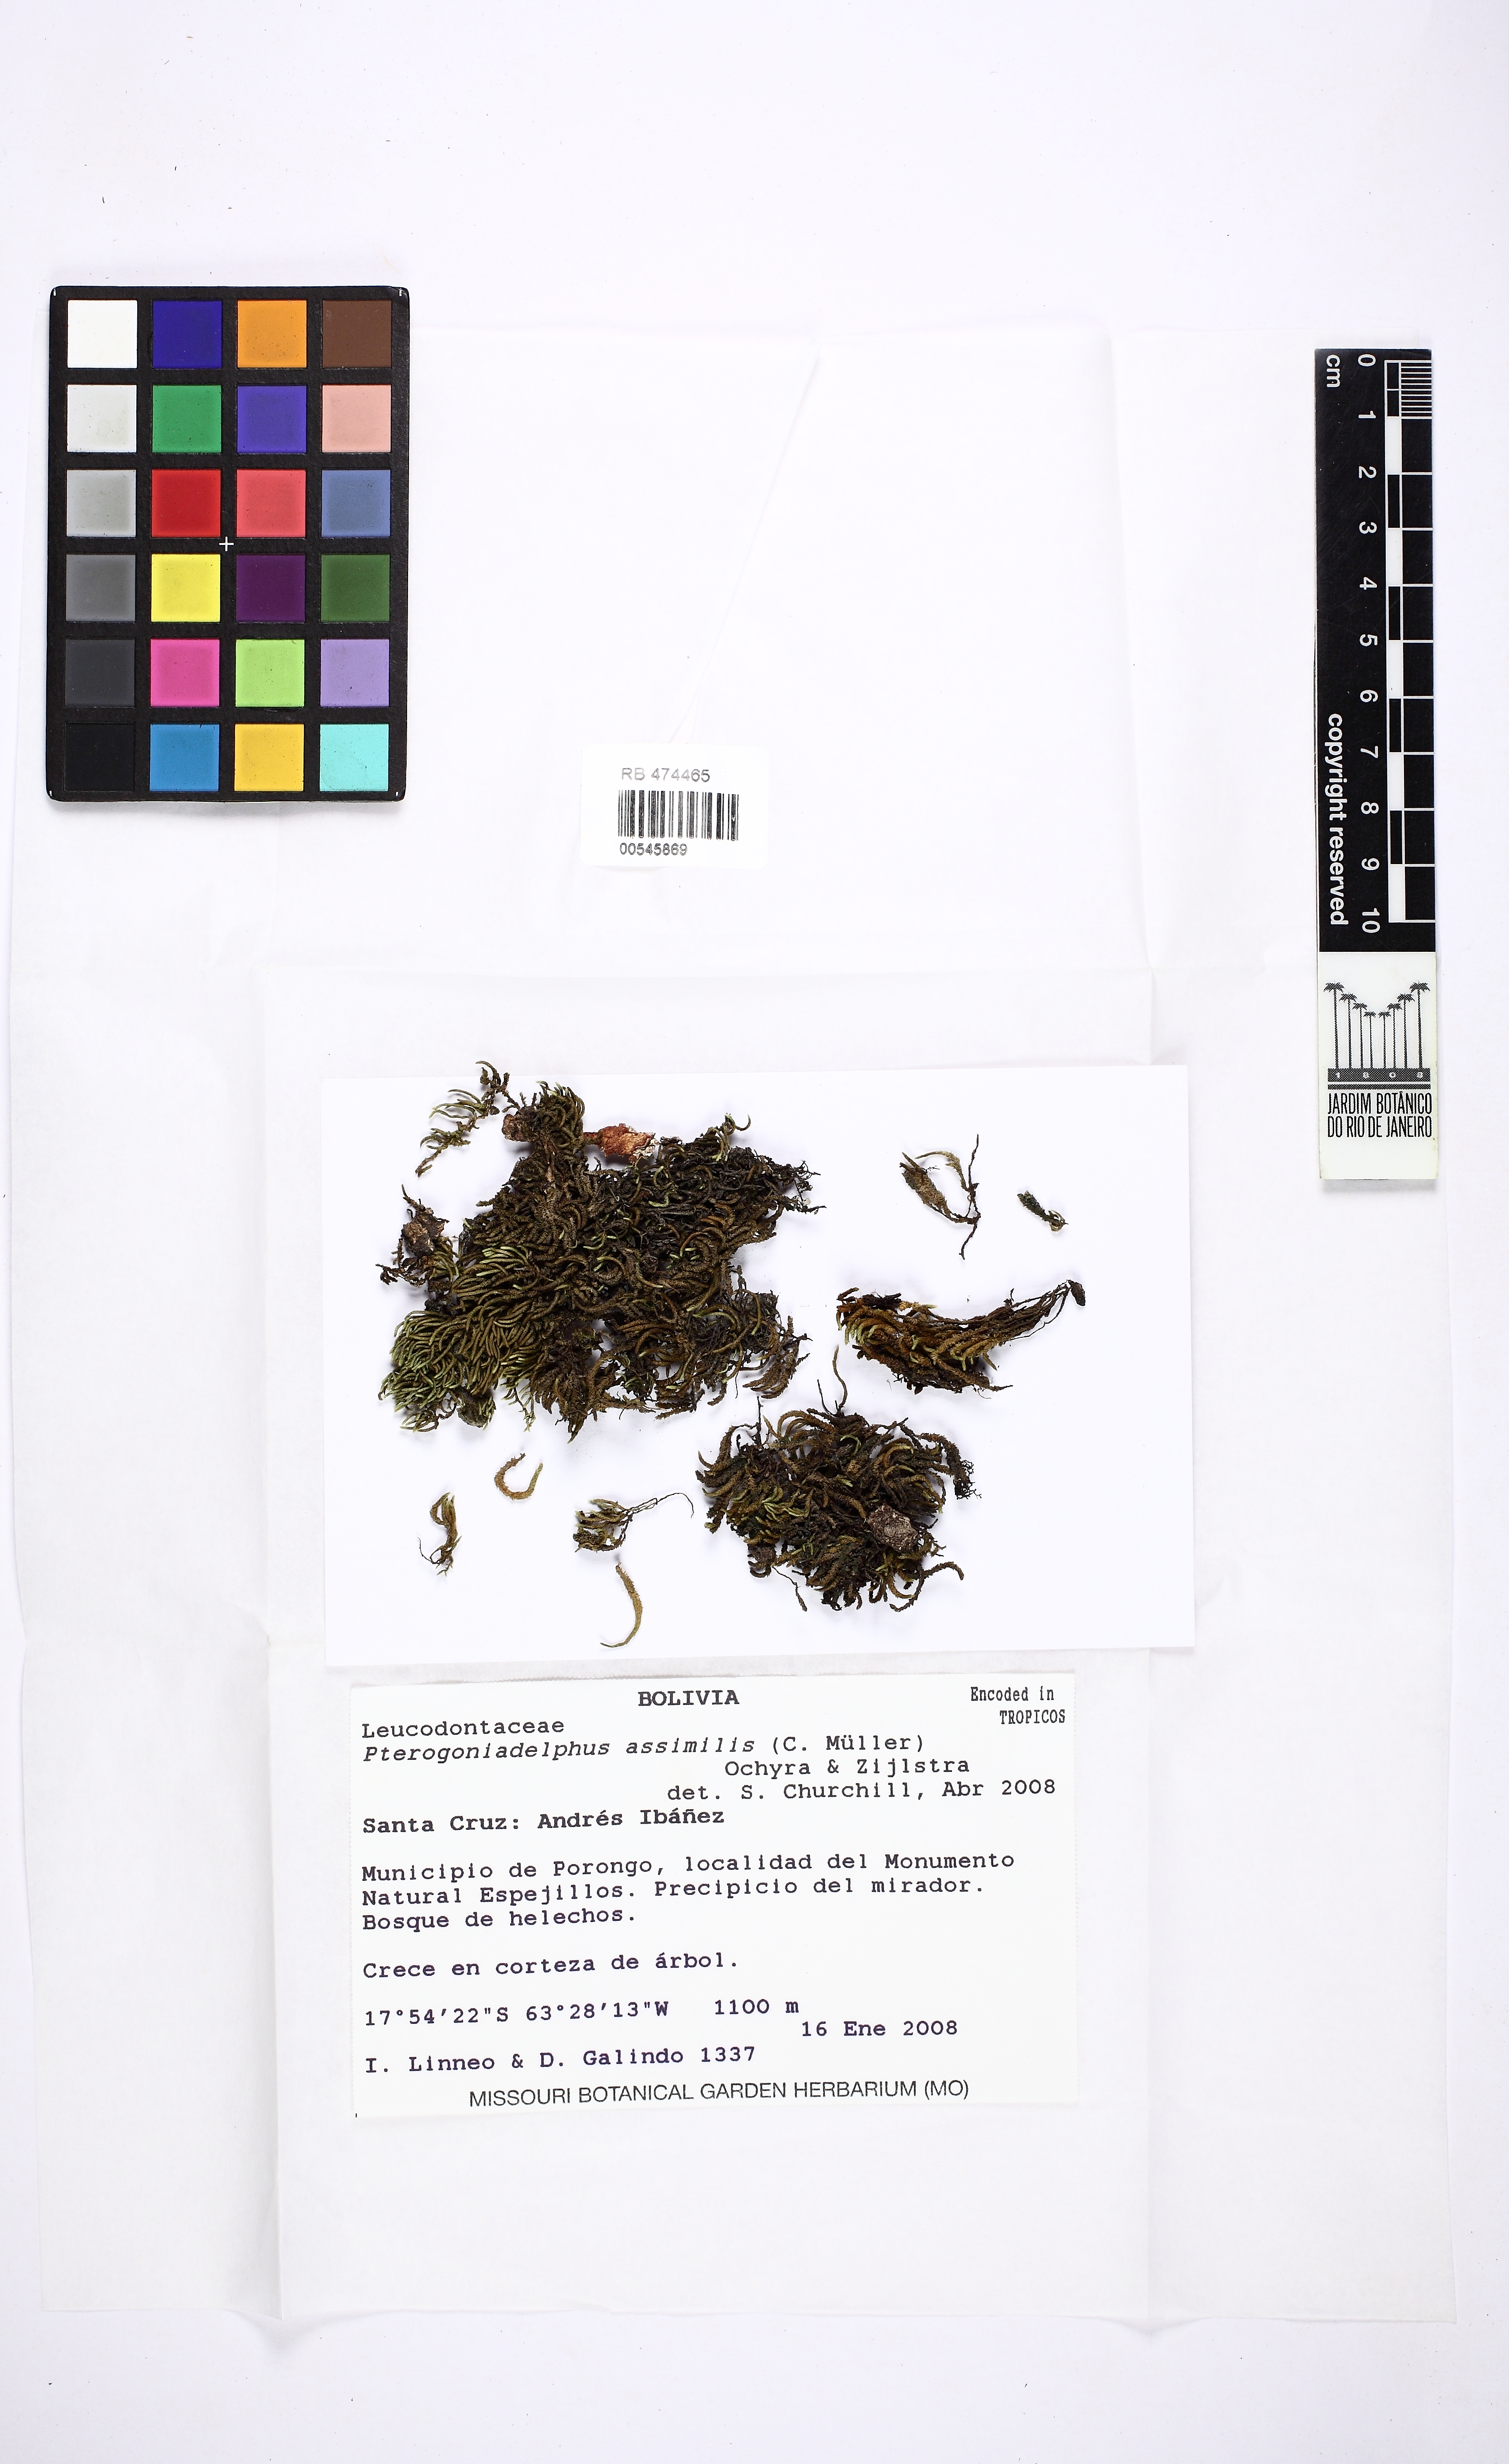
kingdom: Plantae
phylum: Bryophyta
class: Bryopsida
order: Hypnales
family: Leucodontaceae
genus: Pterogoniadelphus
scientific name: Pterogoniadelphus assimilis
